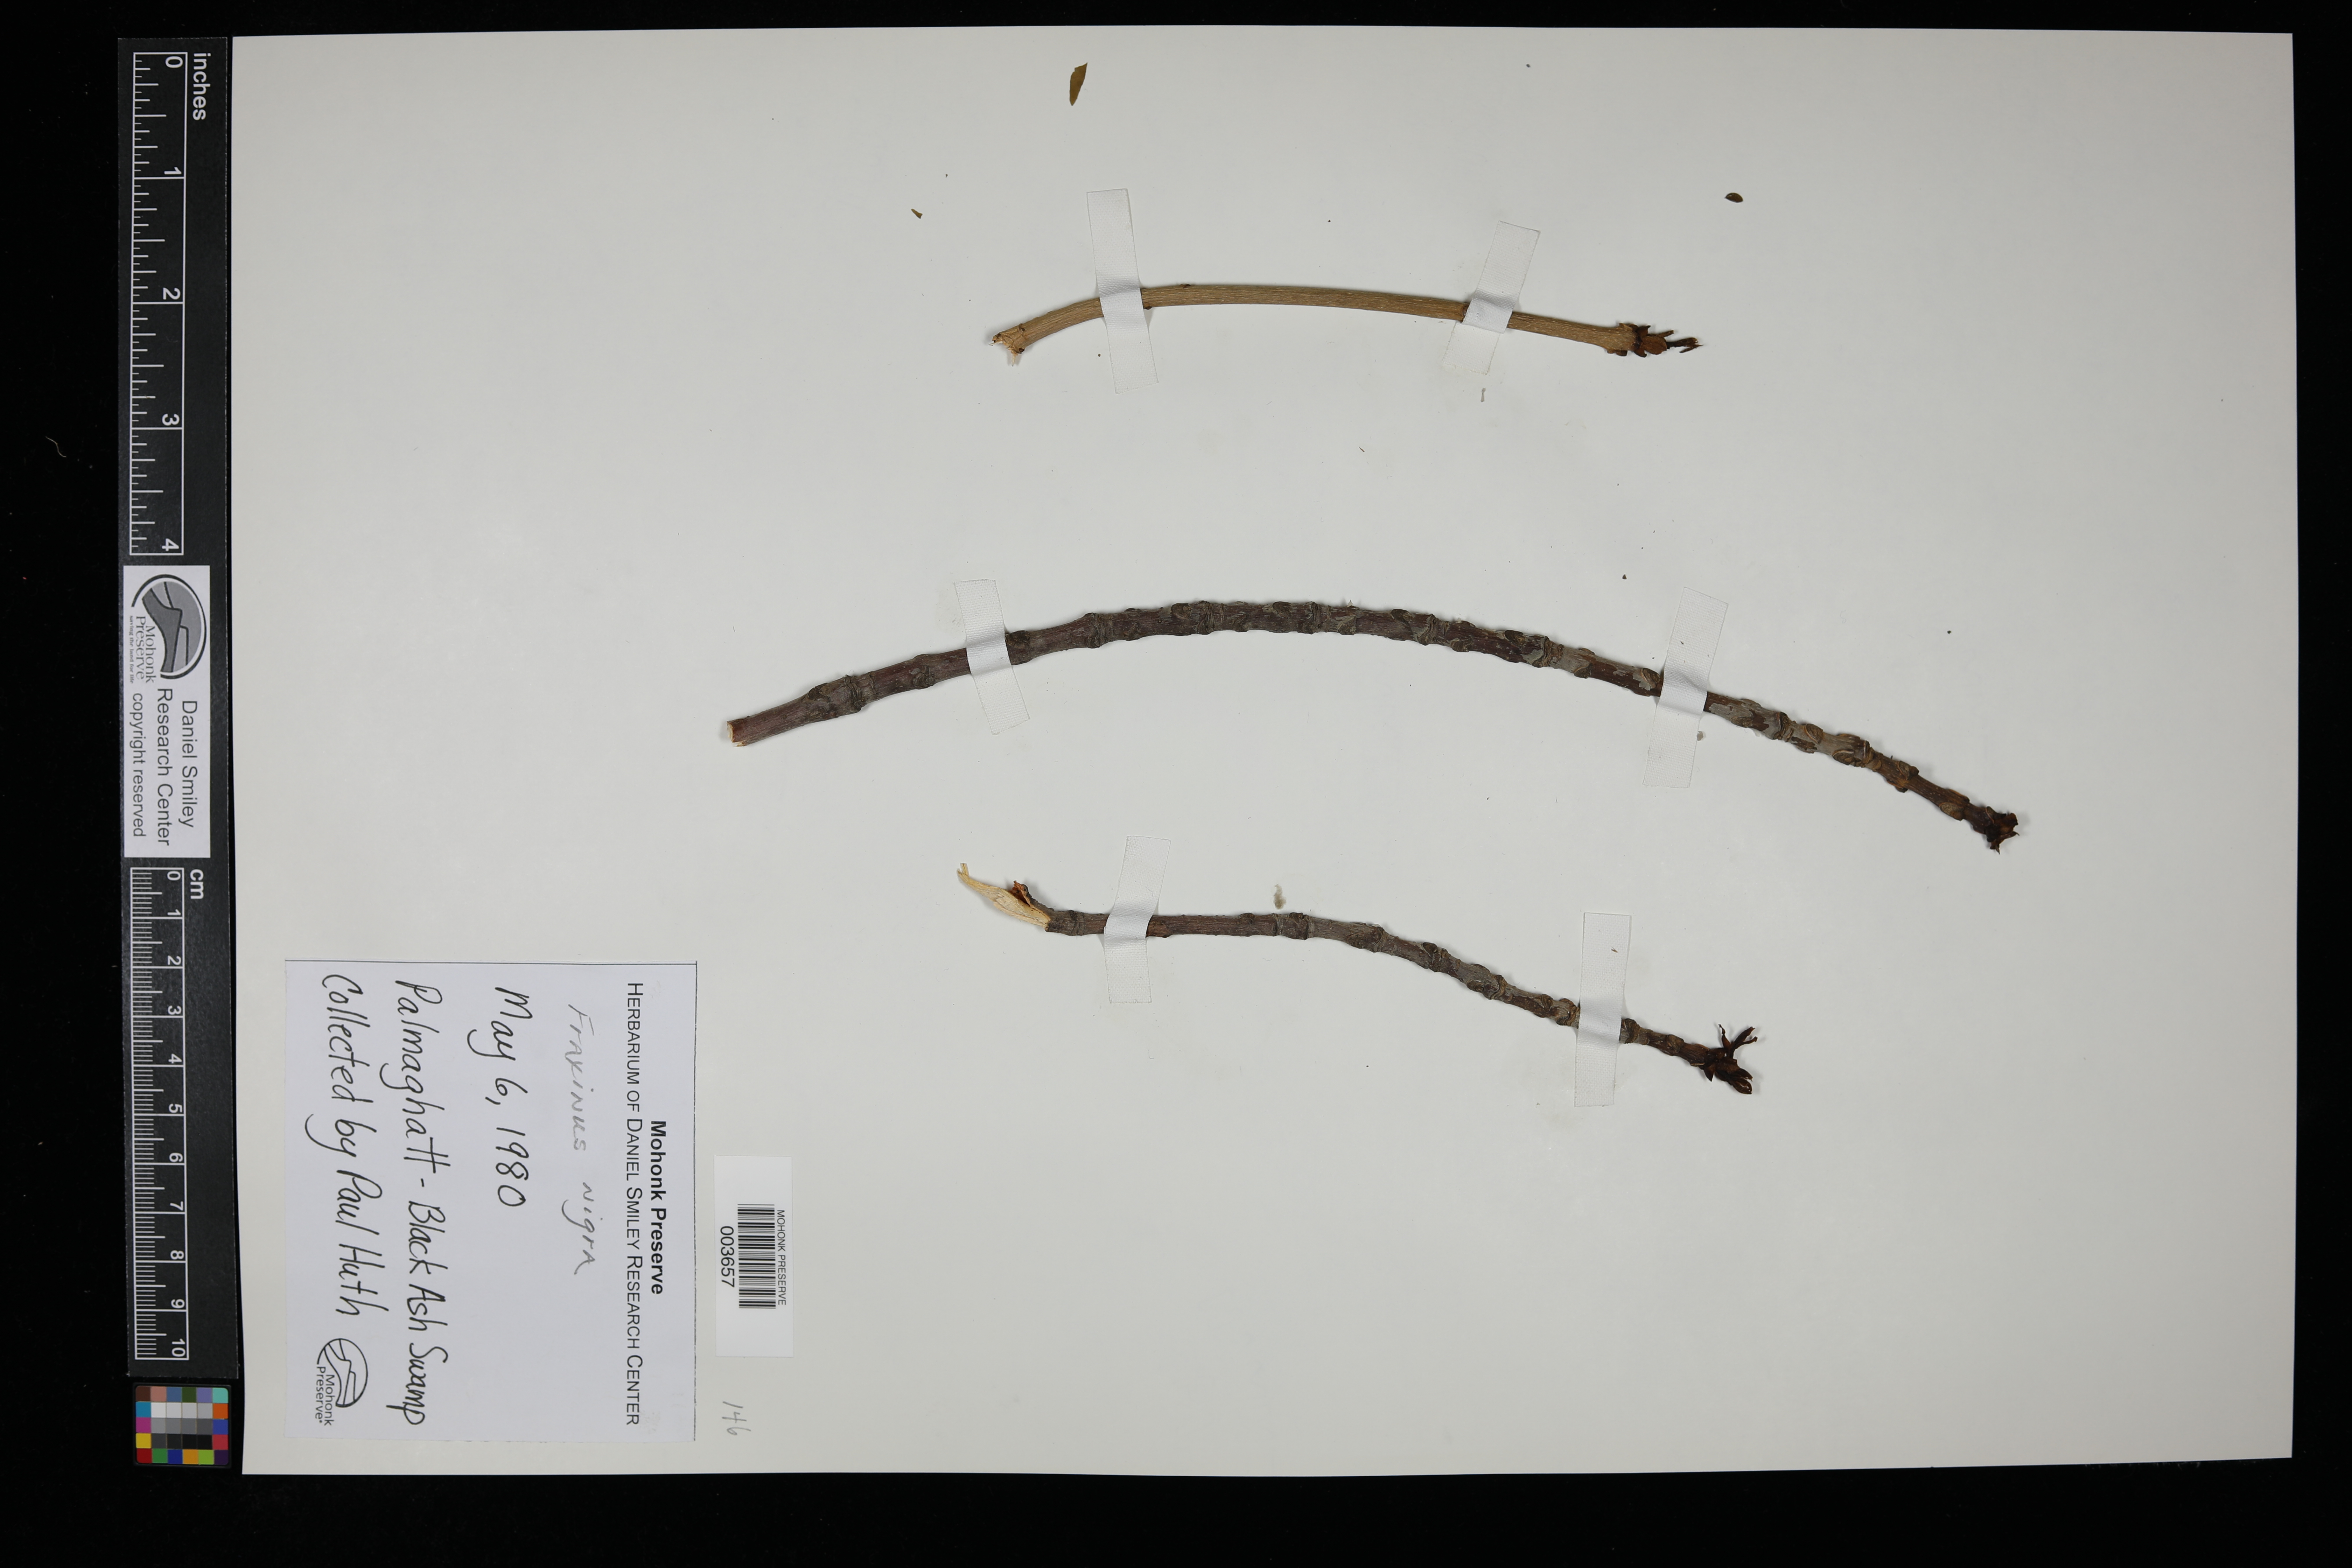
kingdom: Plantae
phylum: Tracheophyta
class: Magnoliopsida
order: Lamiales
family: Oleaceae
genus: Fraxinus
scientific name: Fraxinus nigra
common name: Black ash
